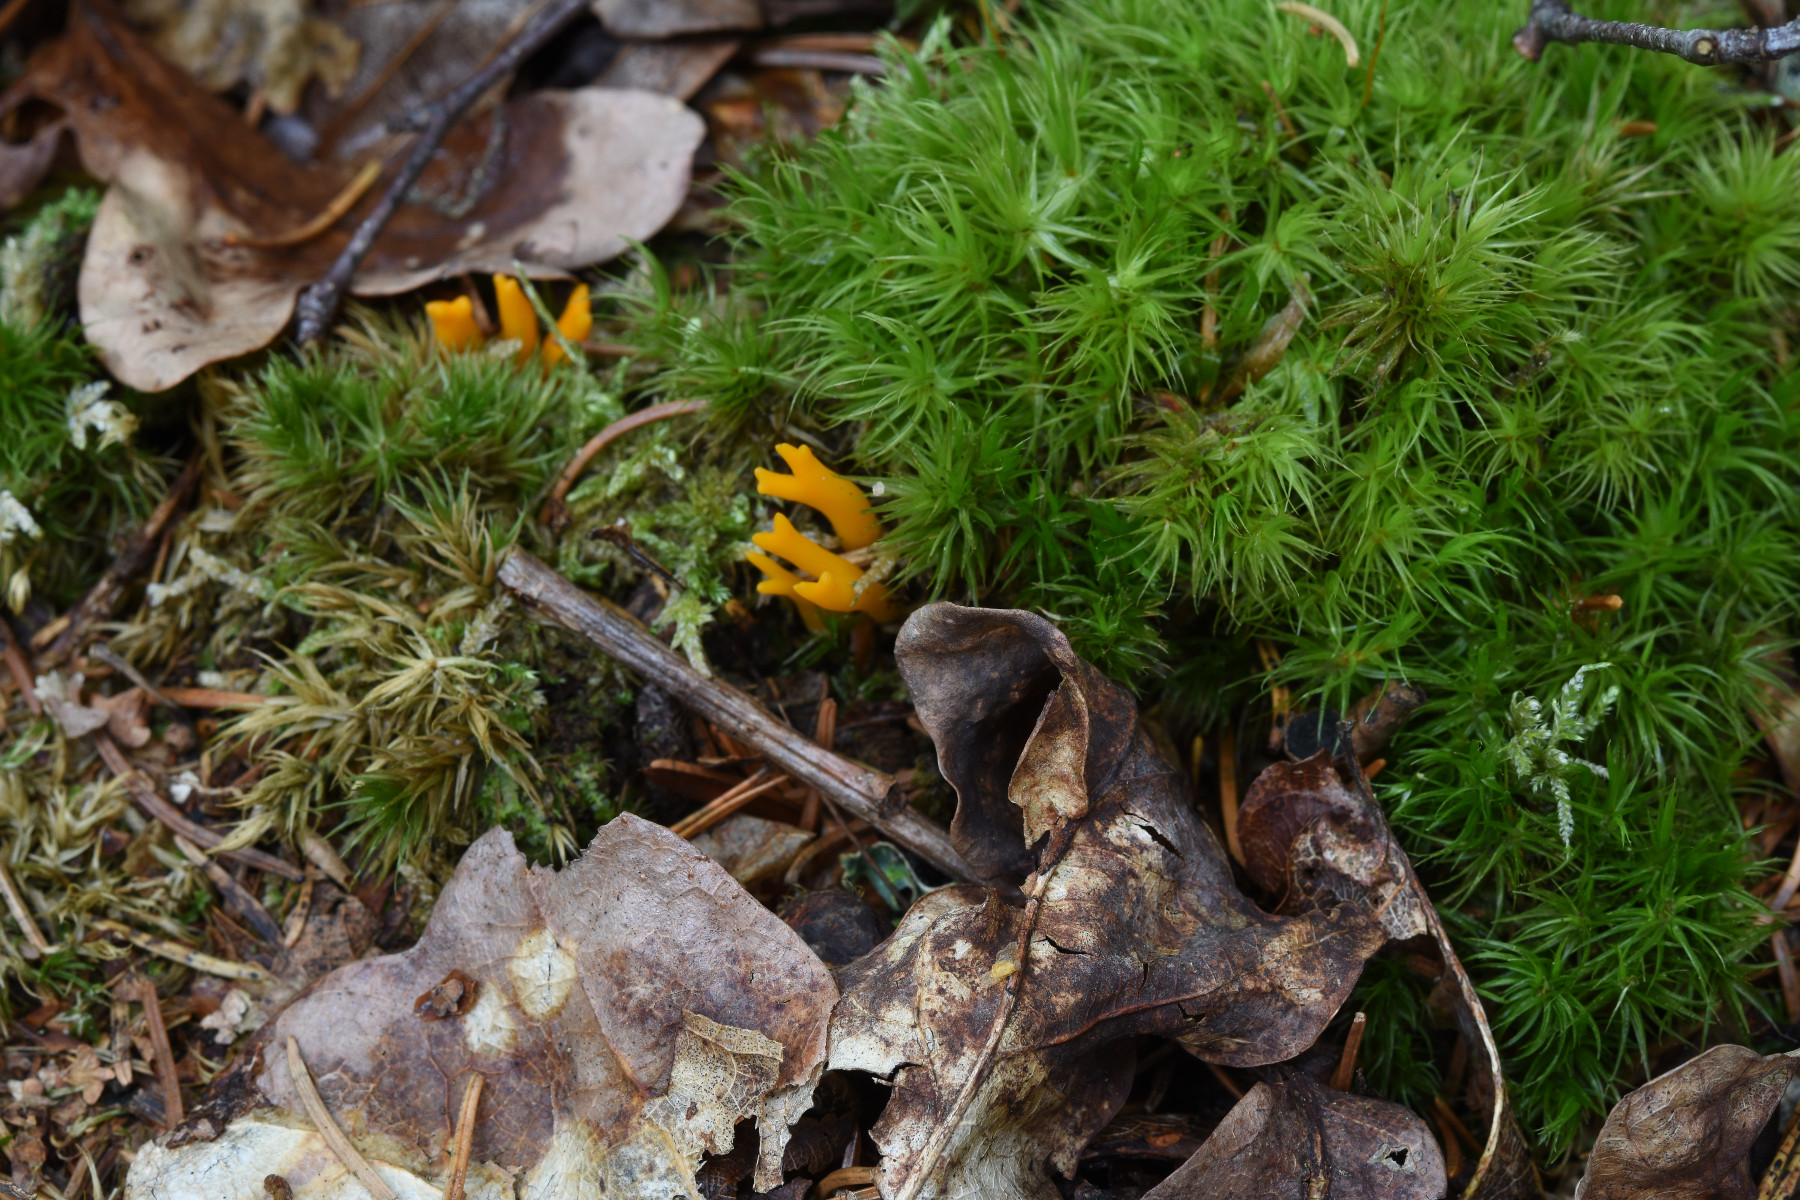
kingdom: Fungi
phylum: Basidiomycota
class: Dacrymycetes
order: Dacrymycetales
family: Dacrymycetaceae
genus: Calocera
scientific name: Calocera viscosa
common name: almindelig guldgaffel
